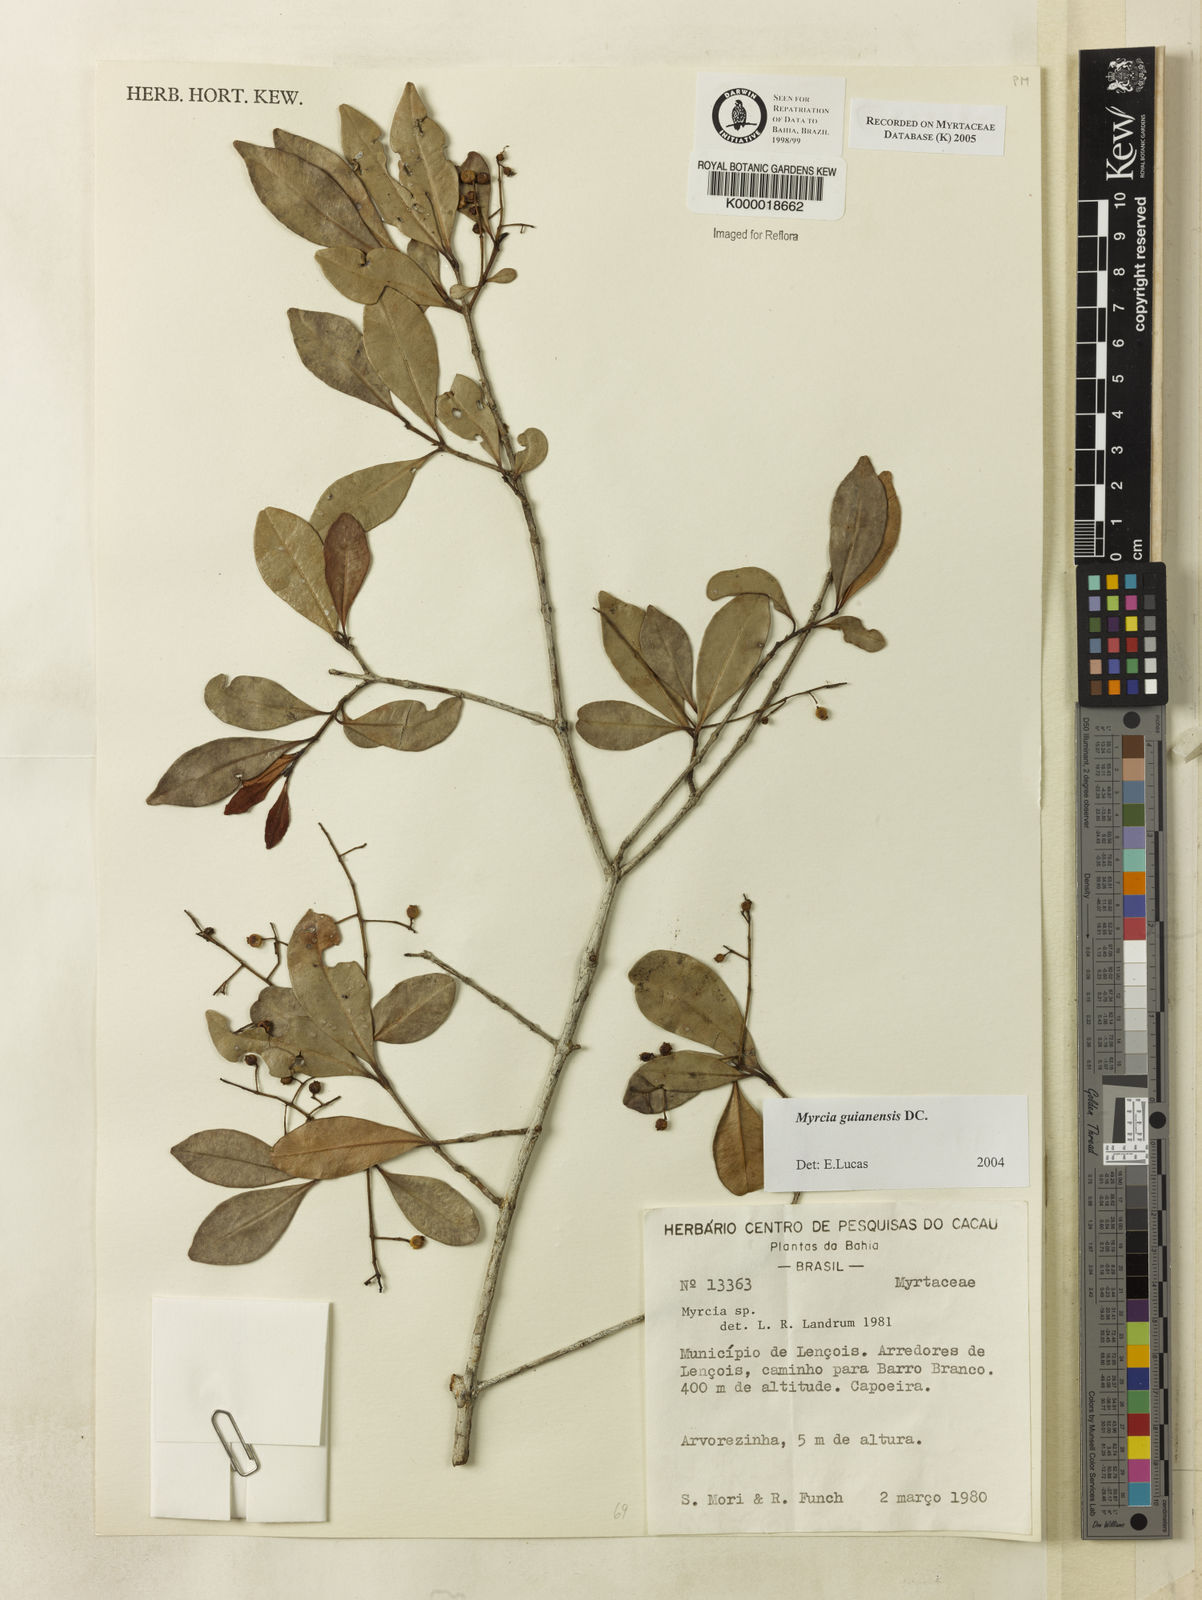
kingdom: Plantae
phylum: Tracheophyta
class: Magnoliopsida
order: Myrtales
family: Myrtaceae
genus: Myrcia
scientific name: Myrcia
